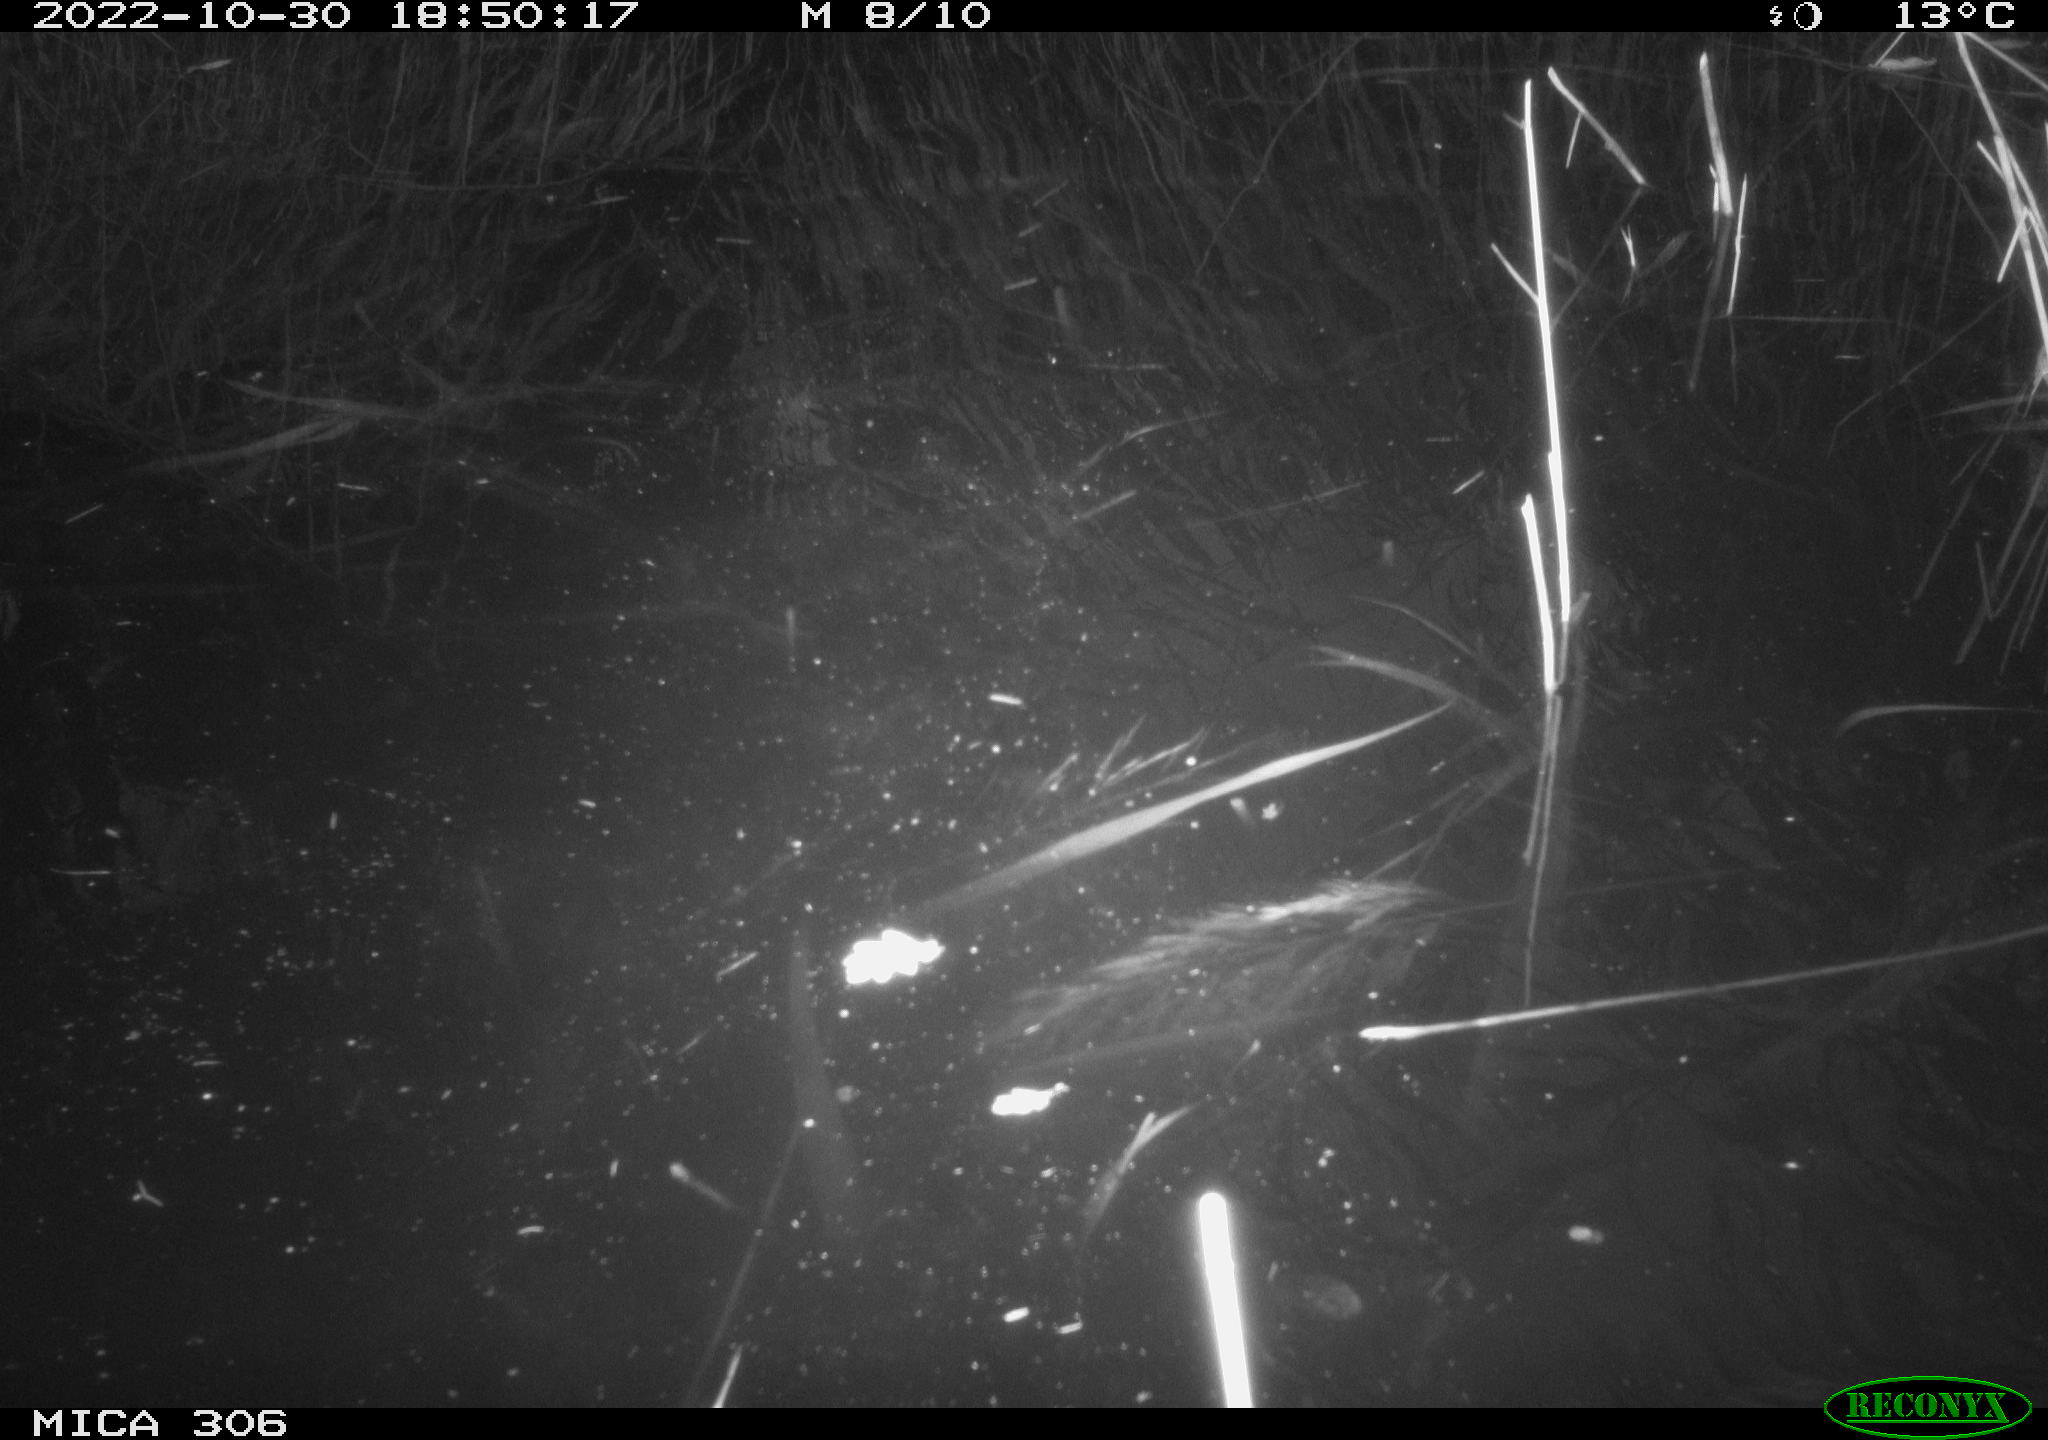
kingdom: Animalia
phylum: Chordata
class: Aves
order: Gruiformes
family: Rallidae
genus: Gallinula
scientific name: Gallinula chloropus
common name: Common moorhen
